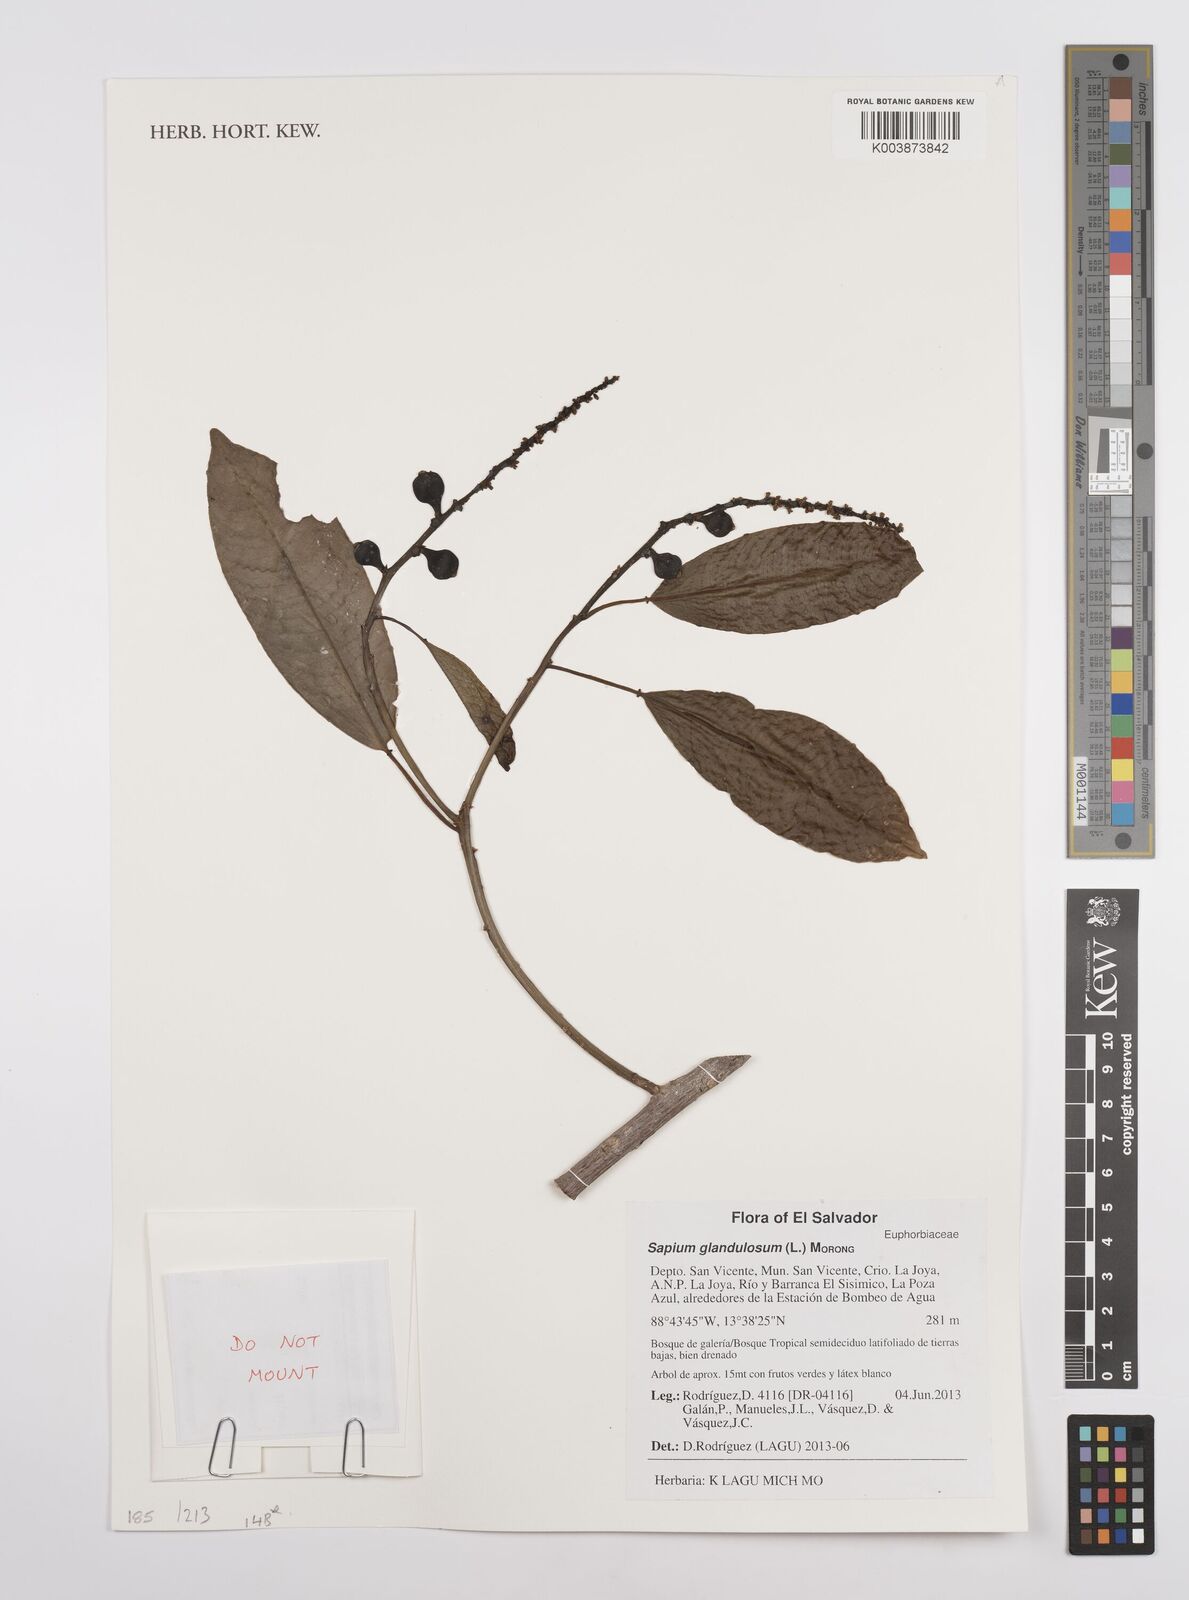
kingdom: Plantae
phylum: Tracheophyta
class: Magnoliopsida
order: Malpighiales
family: Euphorbiaceae
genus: Sapium
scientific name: Sapium glandulosum
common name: Milktree
